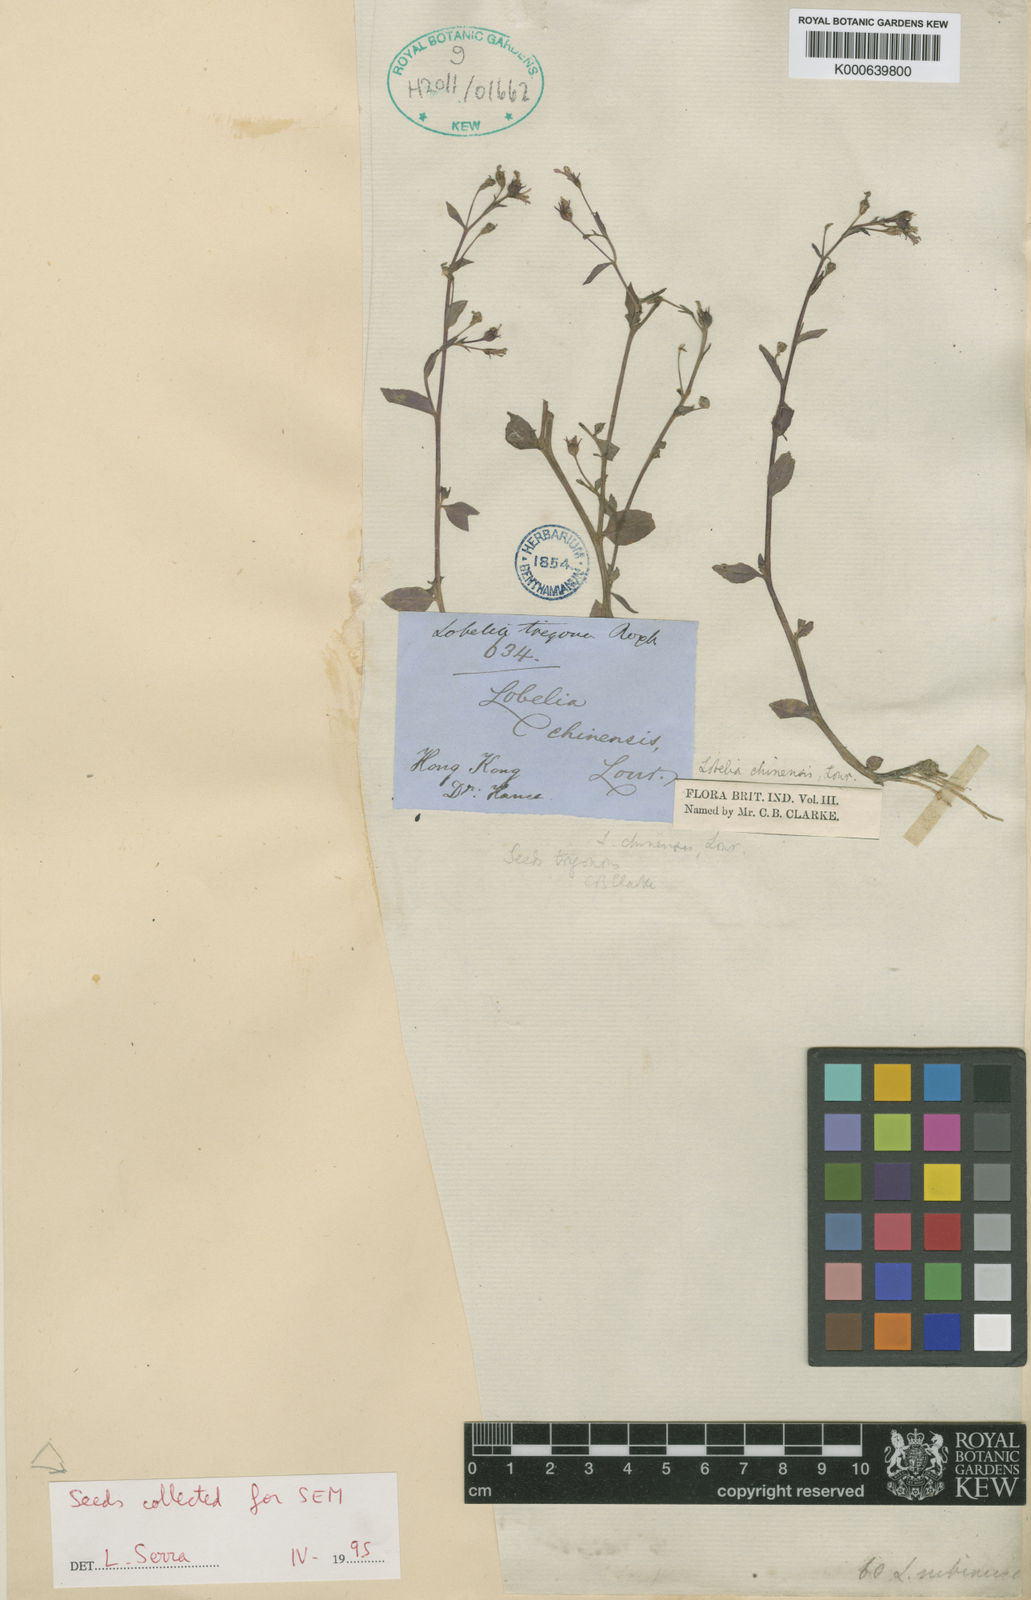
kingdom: Plantae
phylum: Tracheophyta
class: Magnoliopsida
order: Asterales
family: Campanulaceae
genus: Lobelia
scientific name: Lobelia dopatrioides
